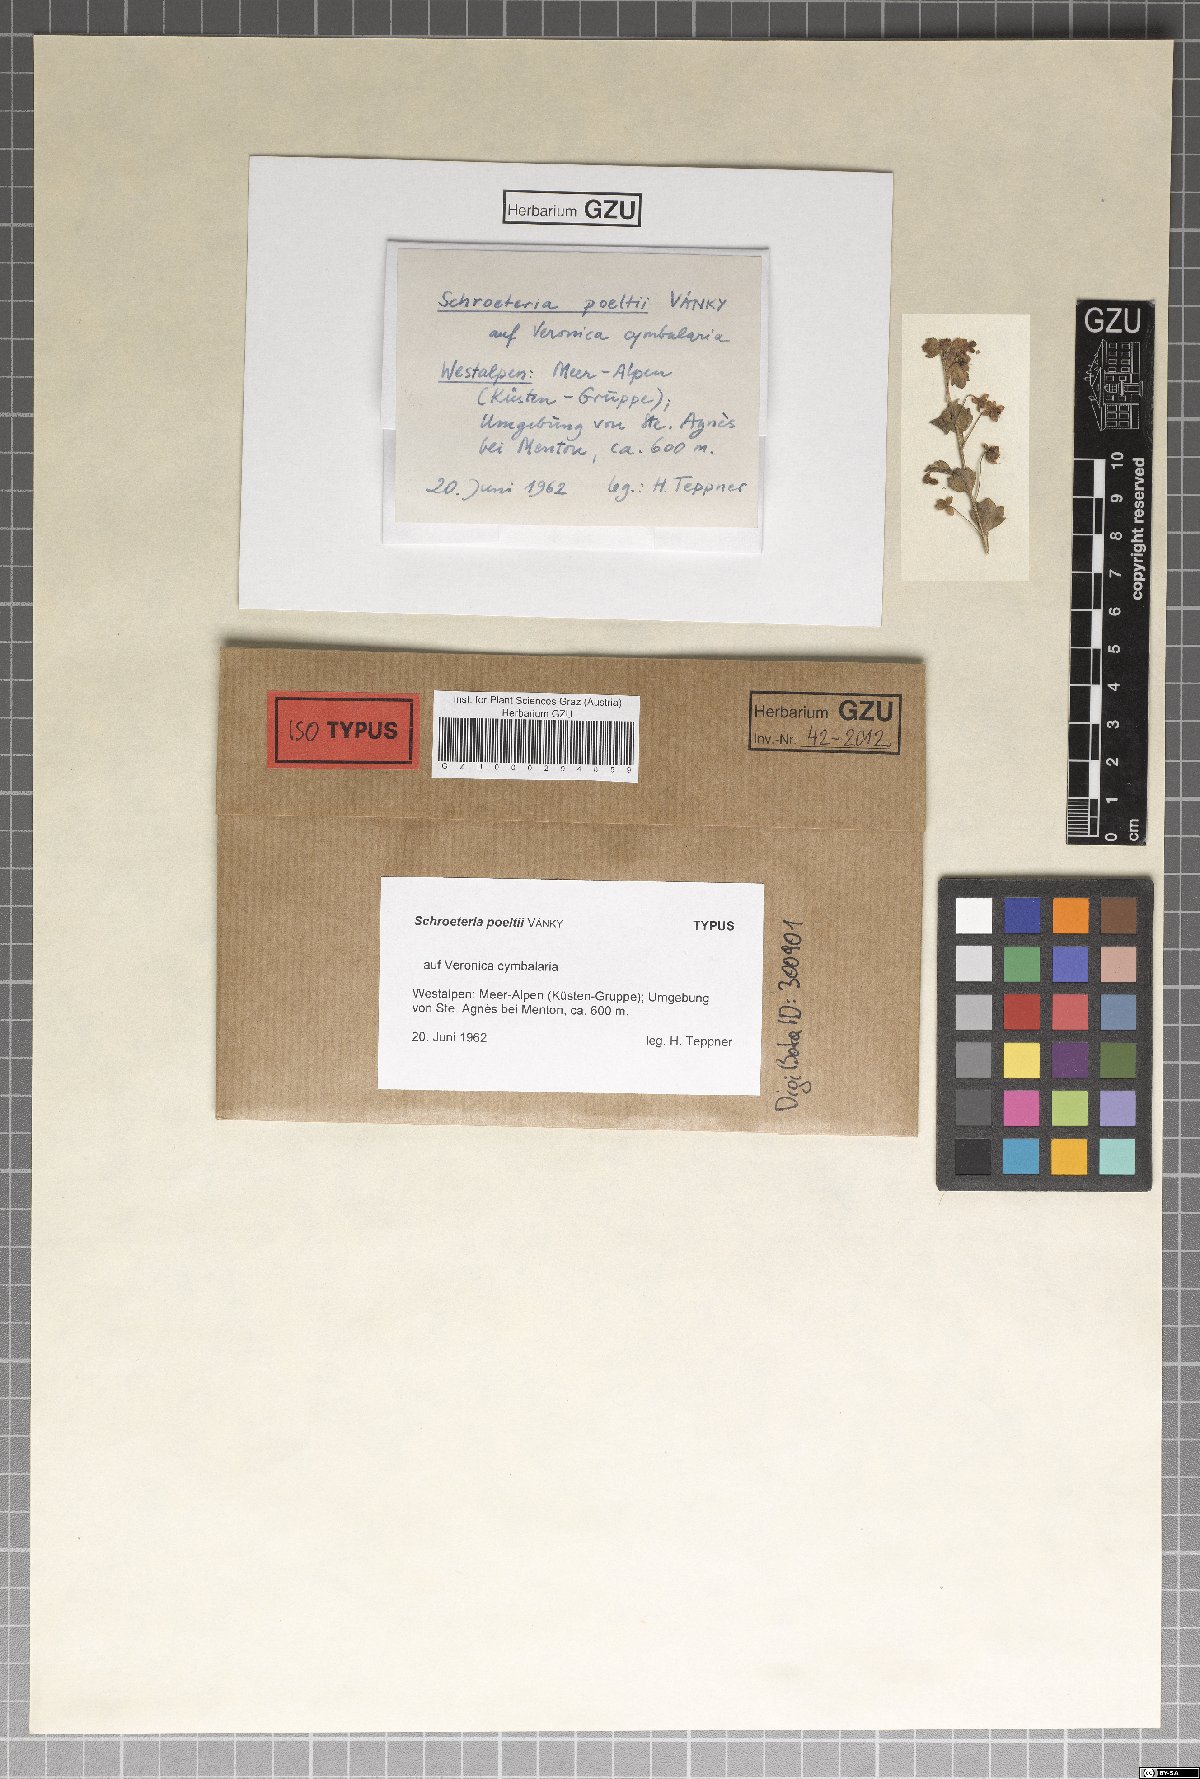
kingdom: Fungi
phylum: Ascomycota
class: Leotiomycetes
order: Helotiales
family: Sclerotiniaceae
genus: Schroeteria
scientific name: Schroeteria poeltii
